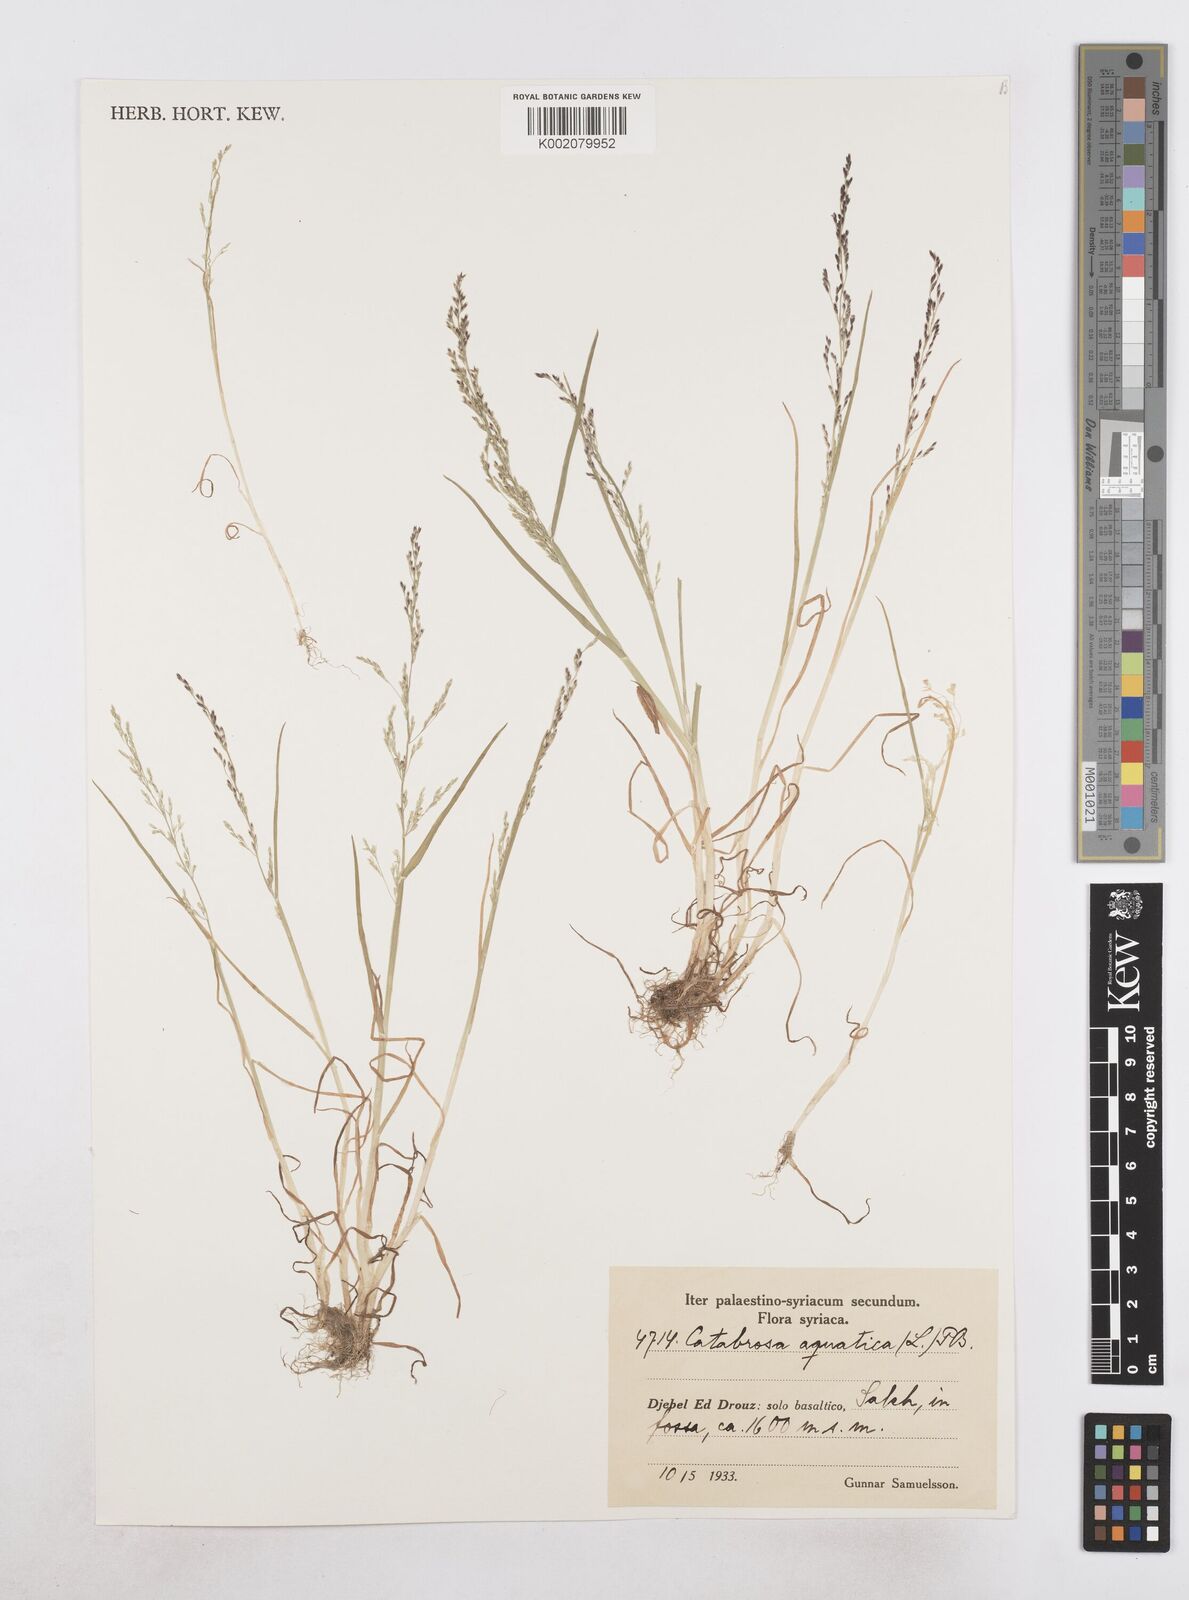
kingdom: Plantae
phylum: Tracheophyta
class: Liliopsida
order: Poales
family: Poaceae
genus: Catabrosa
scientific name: Catabrosa aquatica
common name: Whorl-grass
